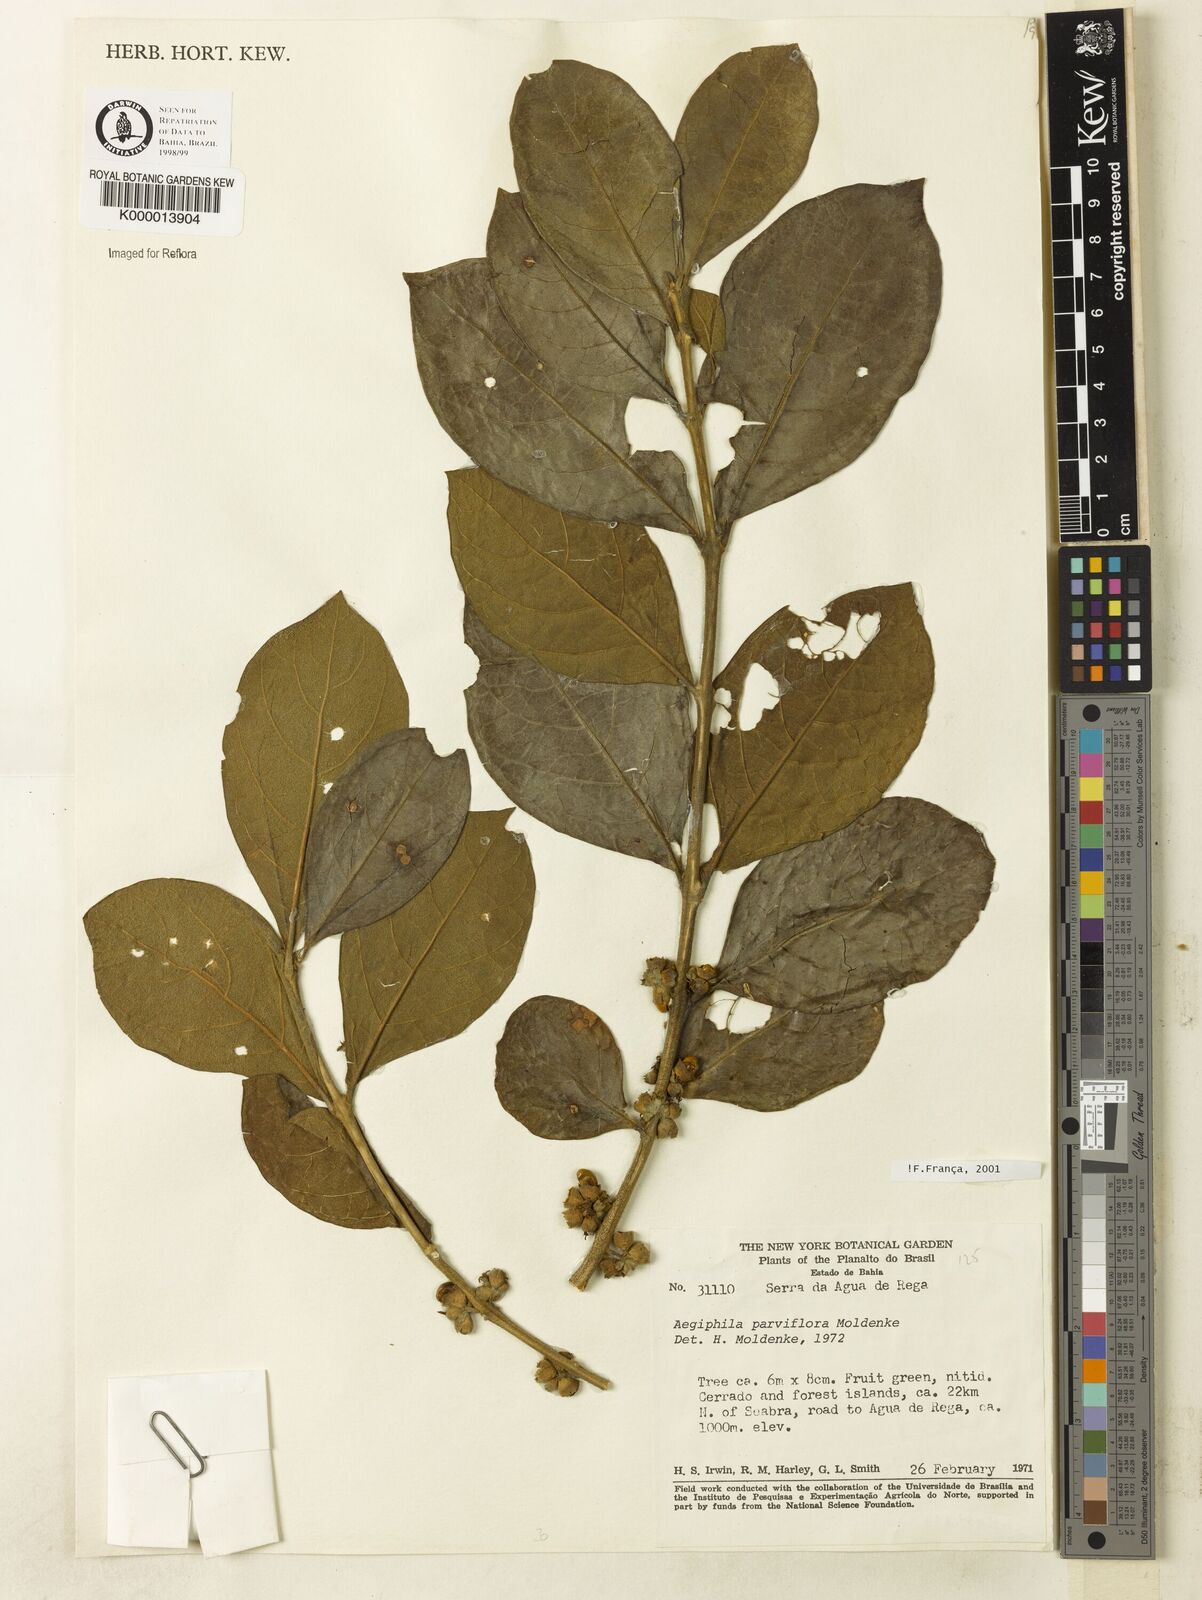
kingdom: Plantae
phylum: Tracheophyta
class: Magnoliopsida
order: Lamiales
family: Lamiaceae
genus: Aegiphila
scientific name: Aegiphila integrifolia
